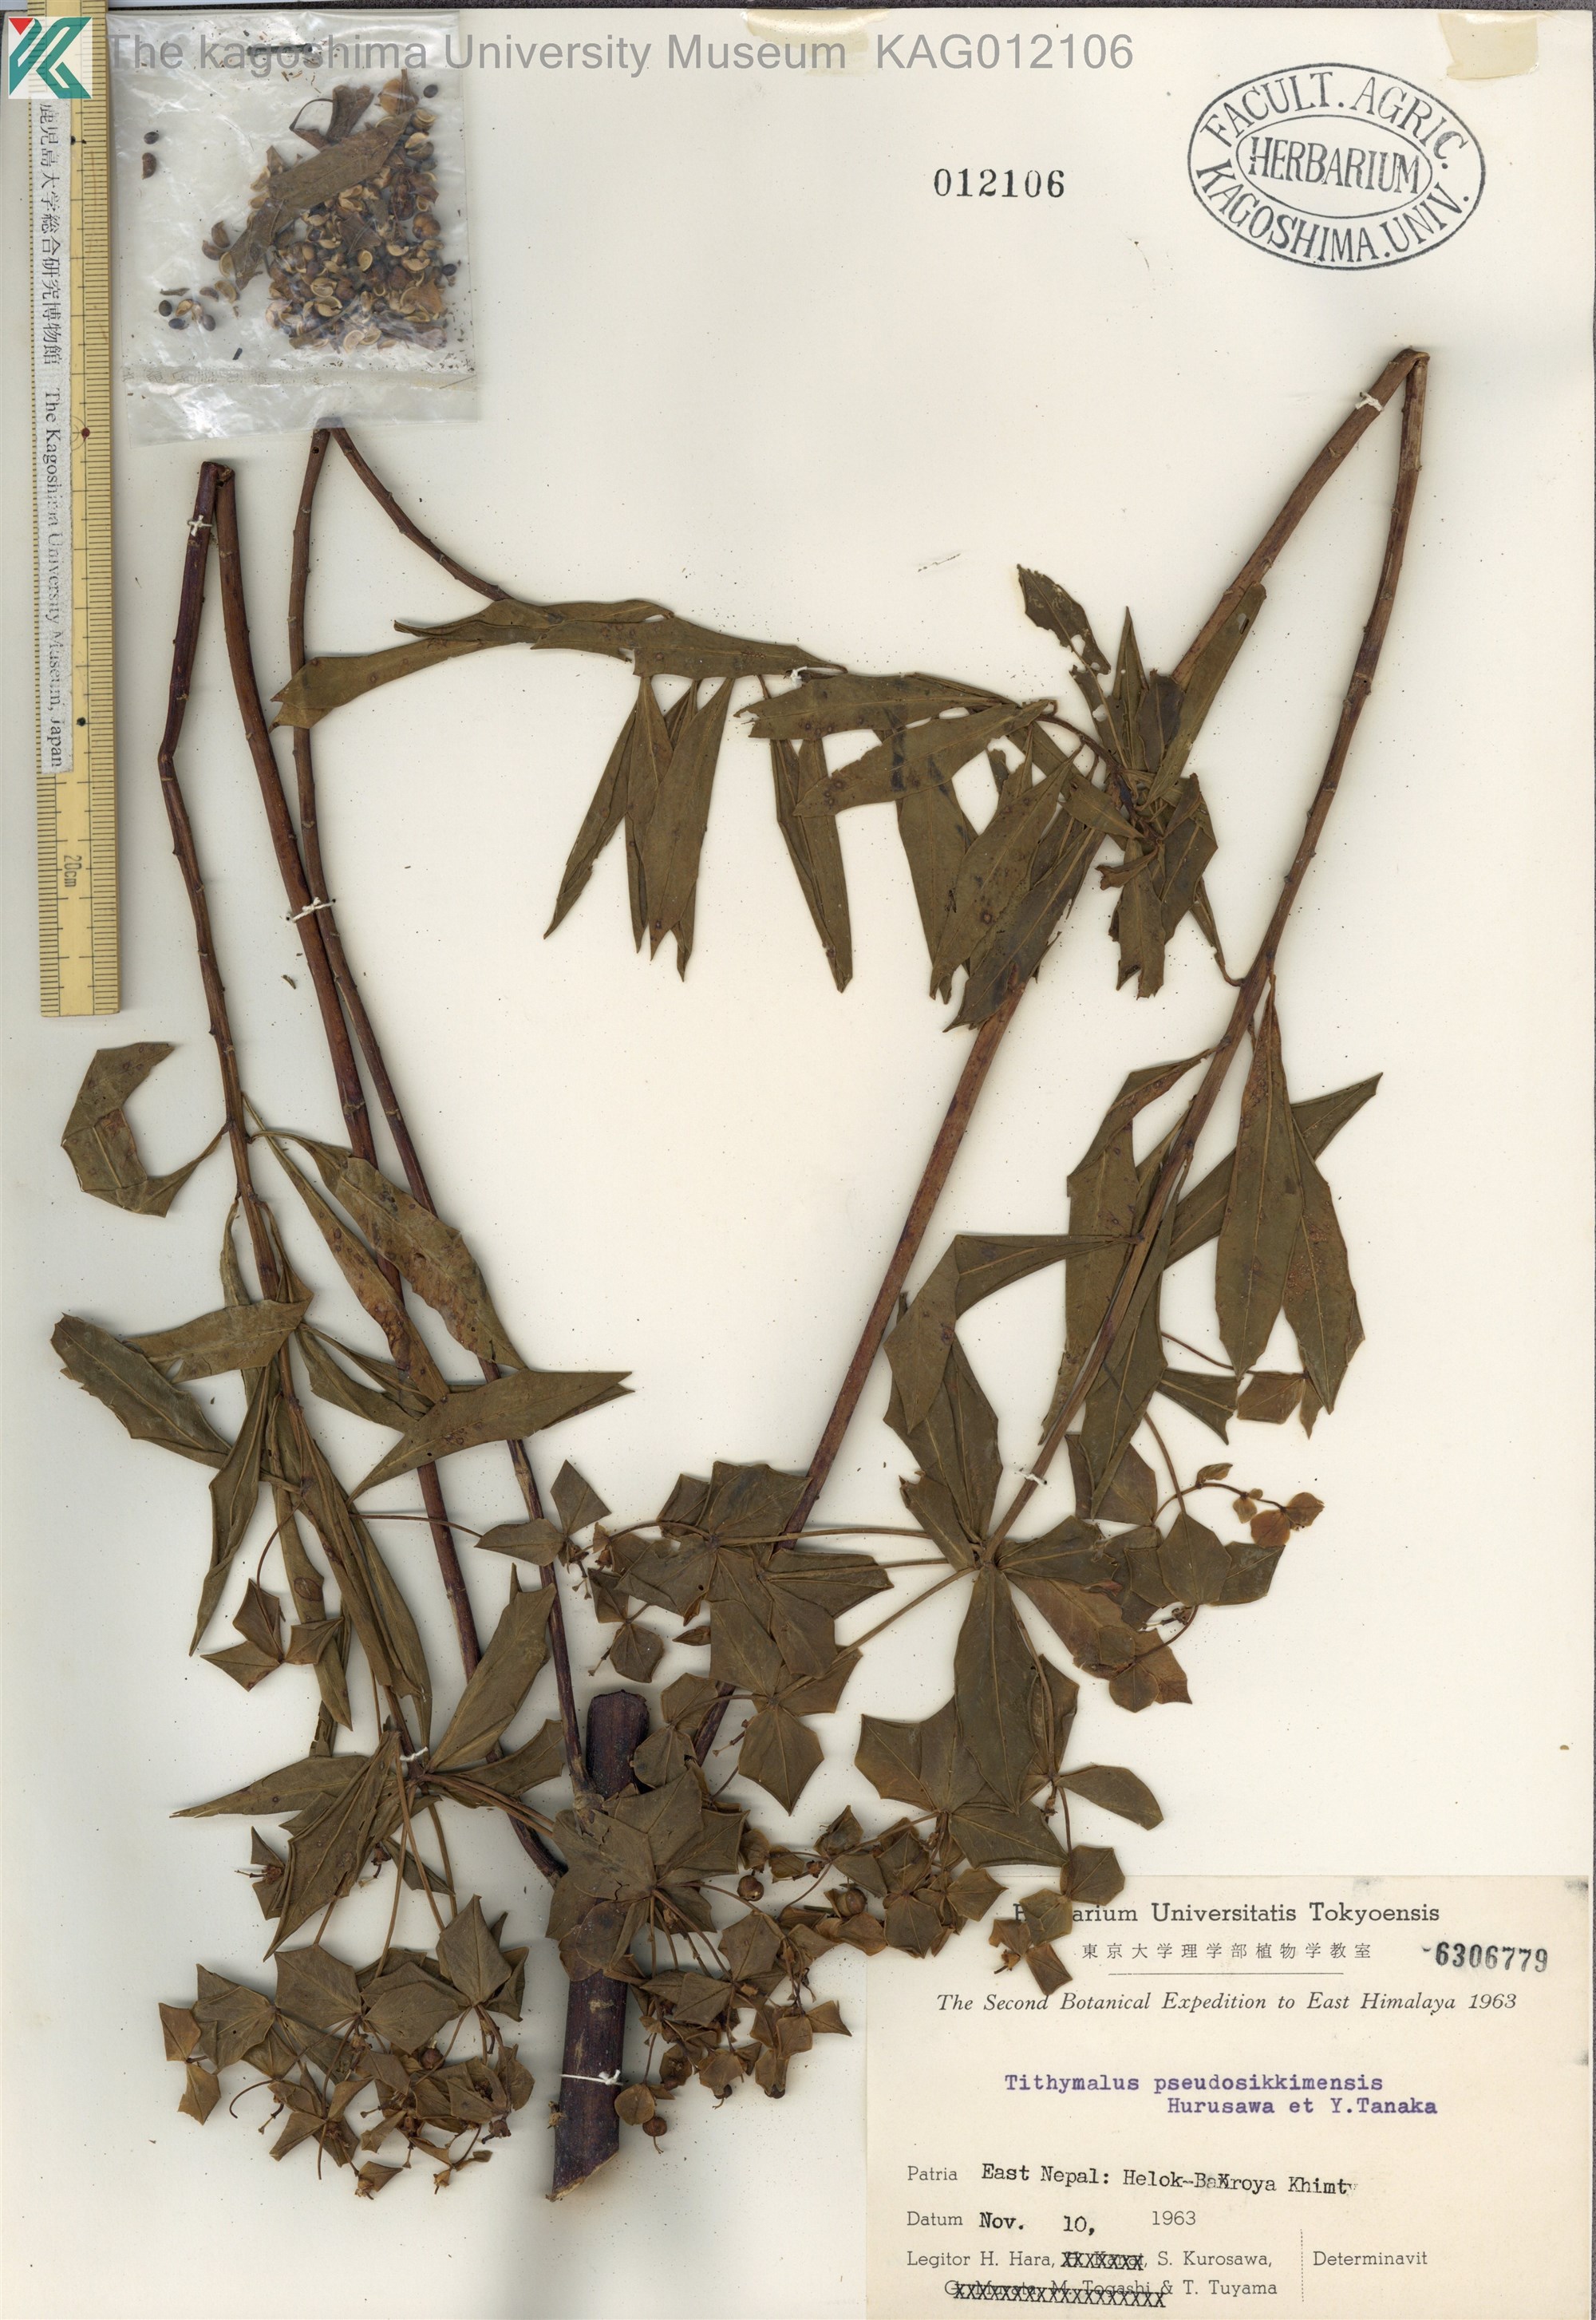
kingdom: Plantae
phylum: Tracheophyta
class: Magnoliopsida
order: Malpighiales
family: Euphorbiaceae
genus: Euphorbia
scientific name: Euphorbia pseudosikkimensis
